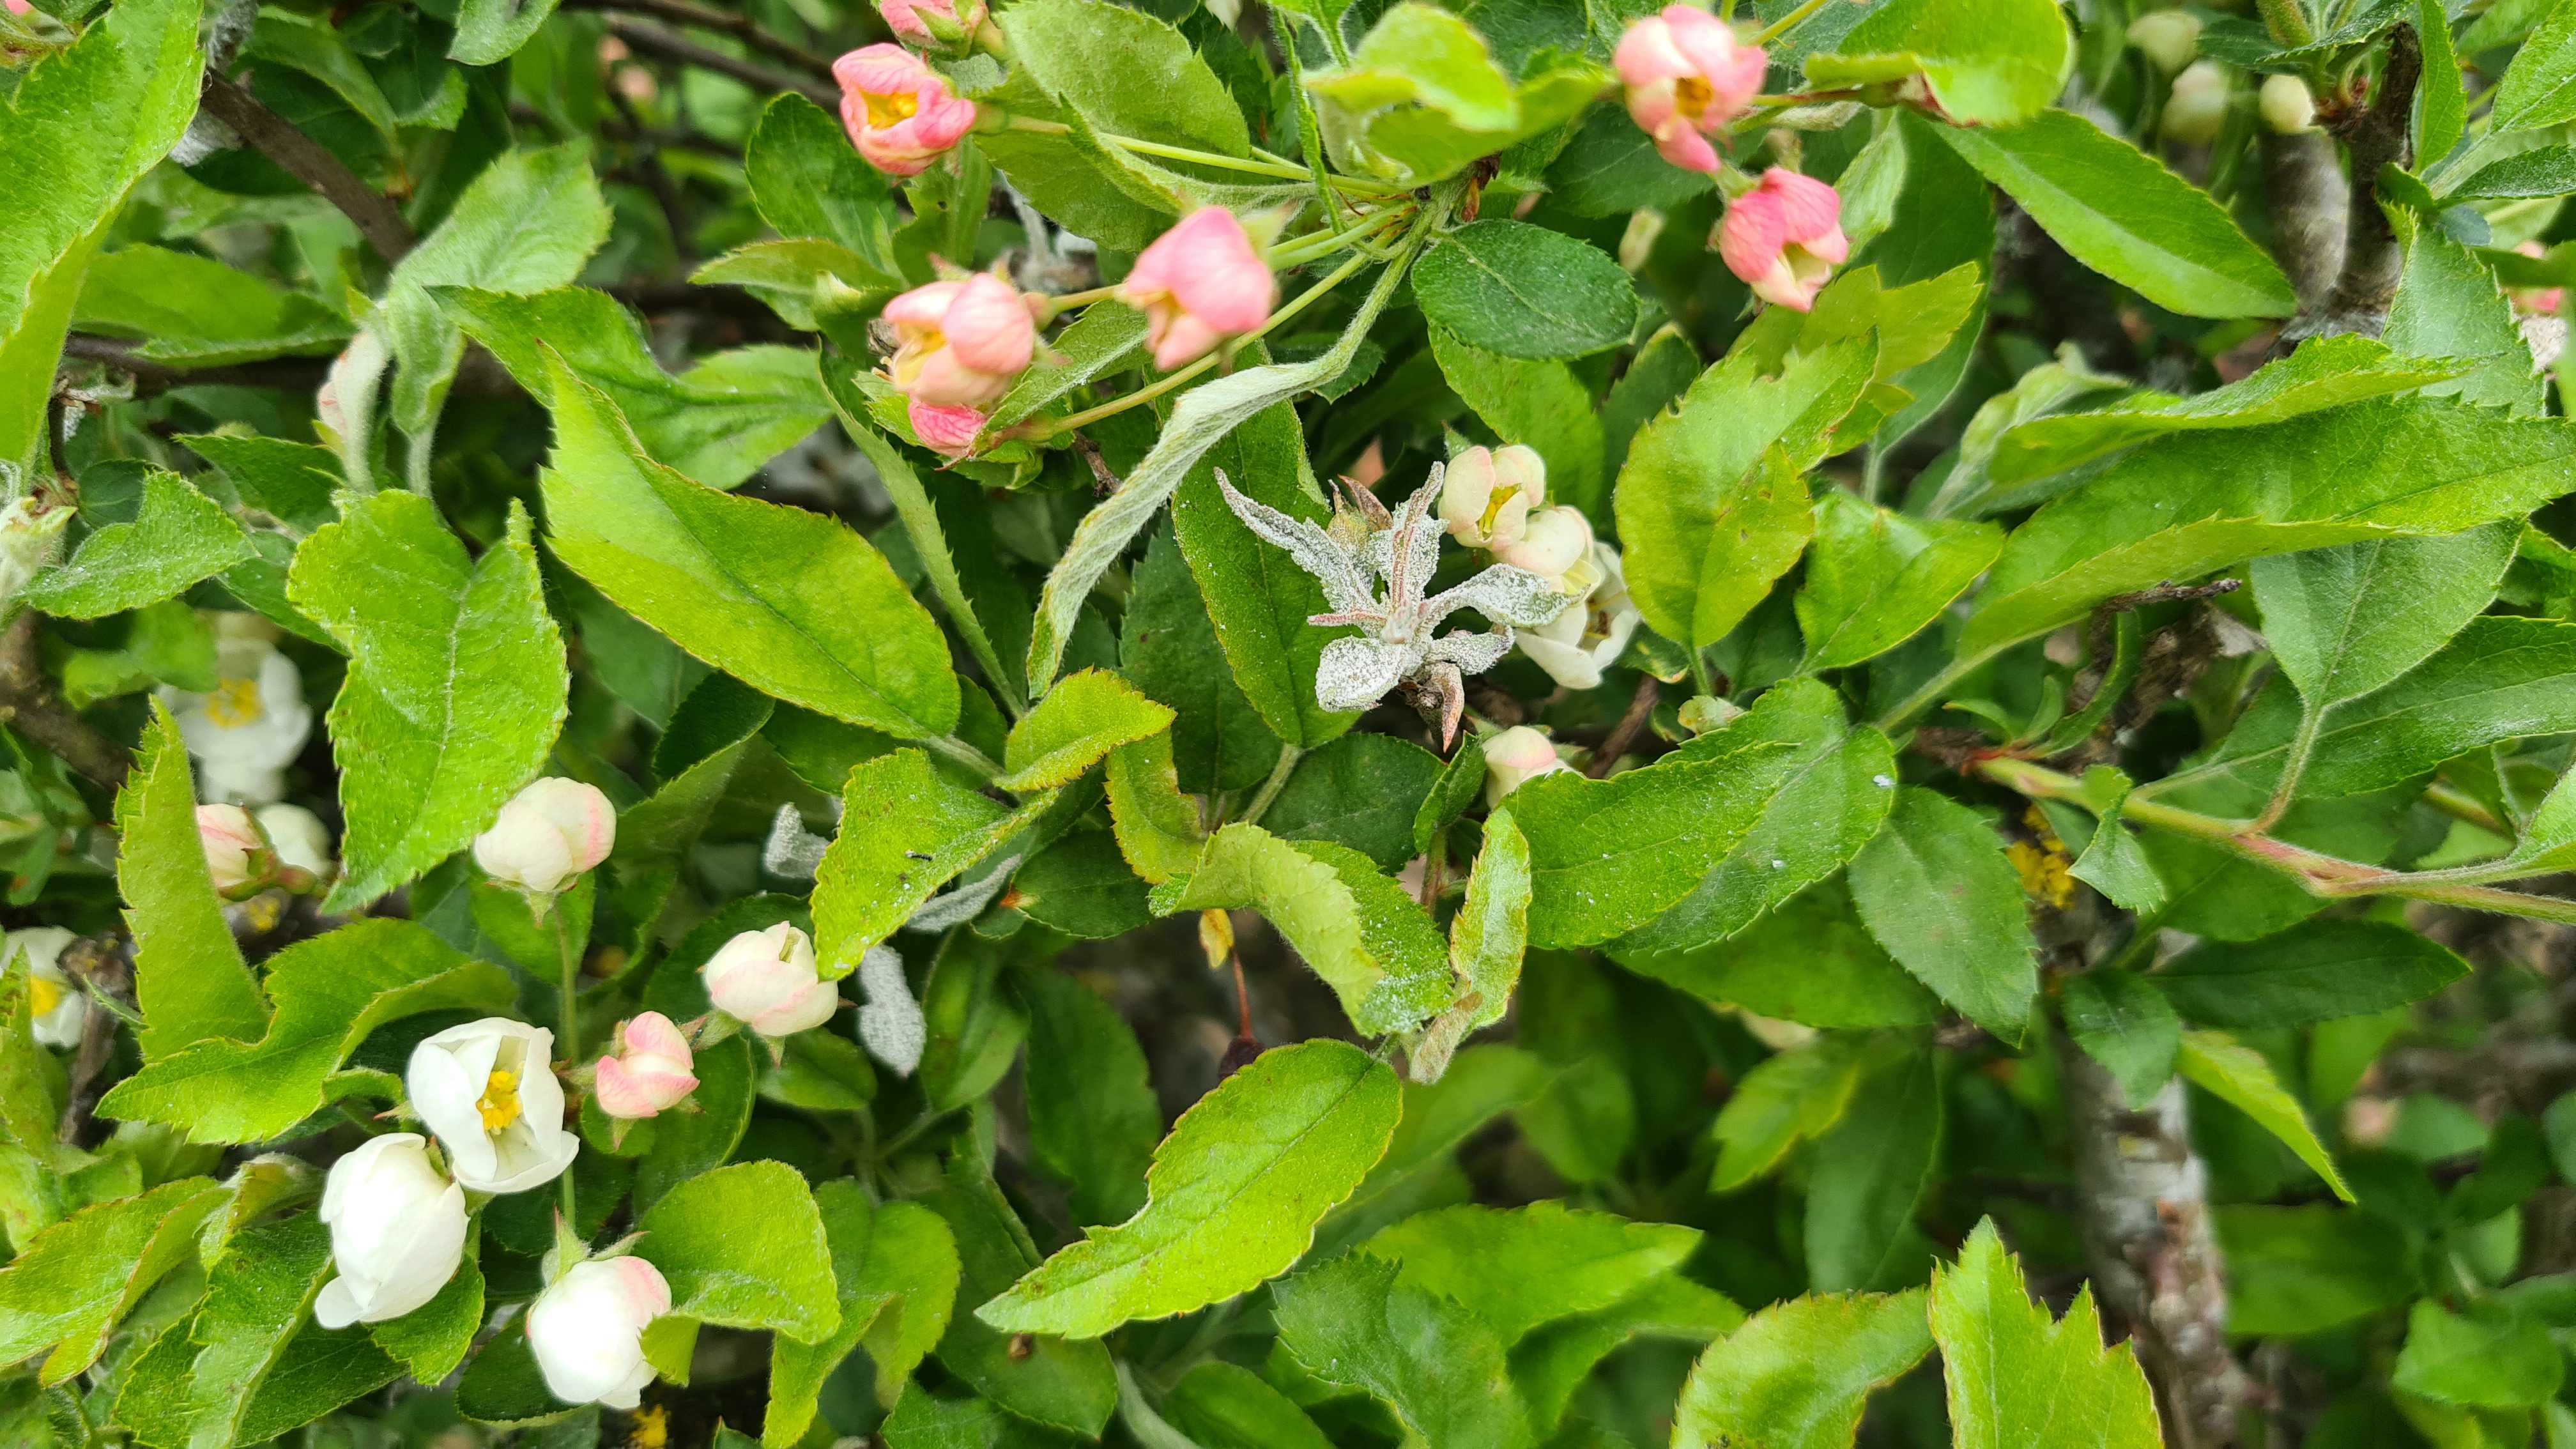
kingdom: Fungi
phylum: Ascomycota
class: Leotiomycetes
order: Helotiales
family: Erysiphaceae
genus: Podosphaera
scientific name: Podosphaera leucotricha
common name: æble-meldug
